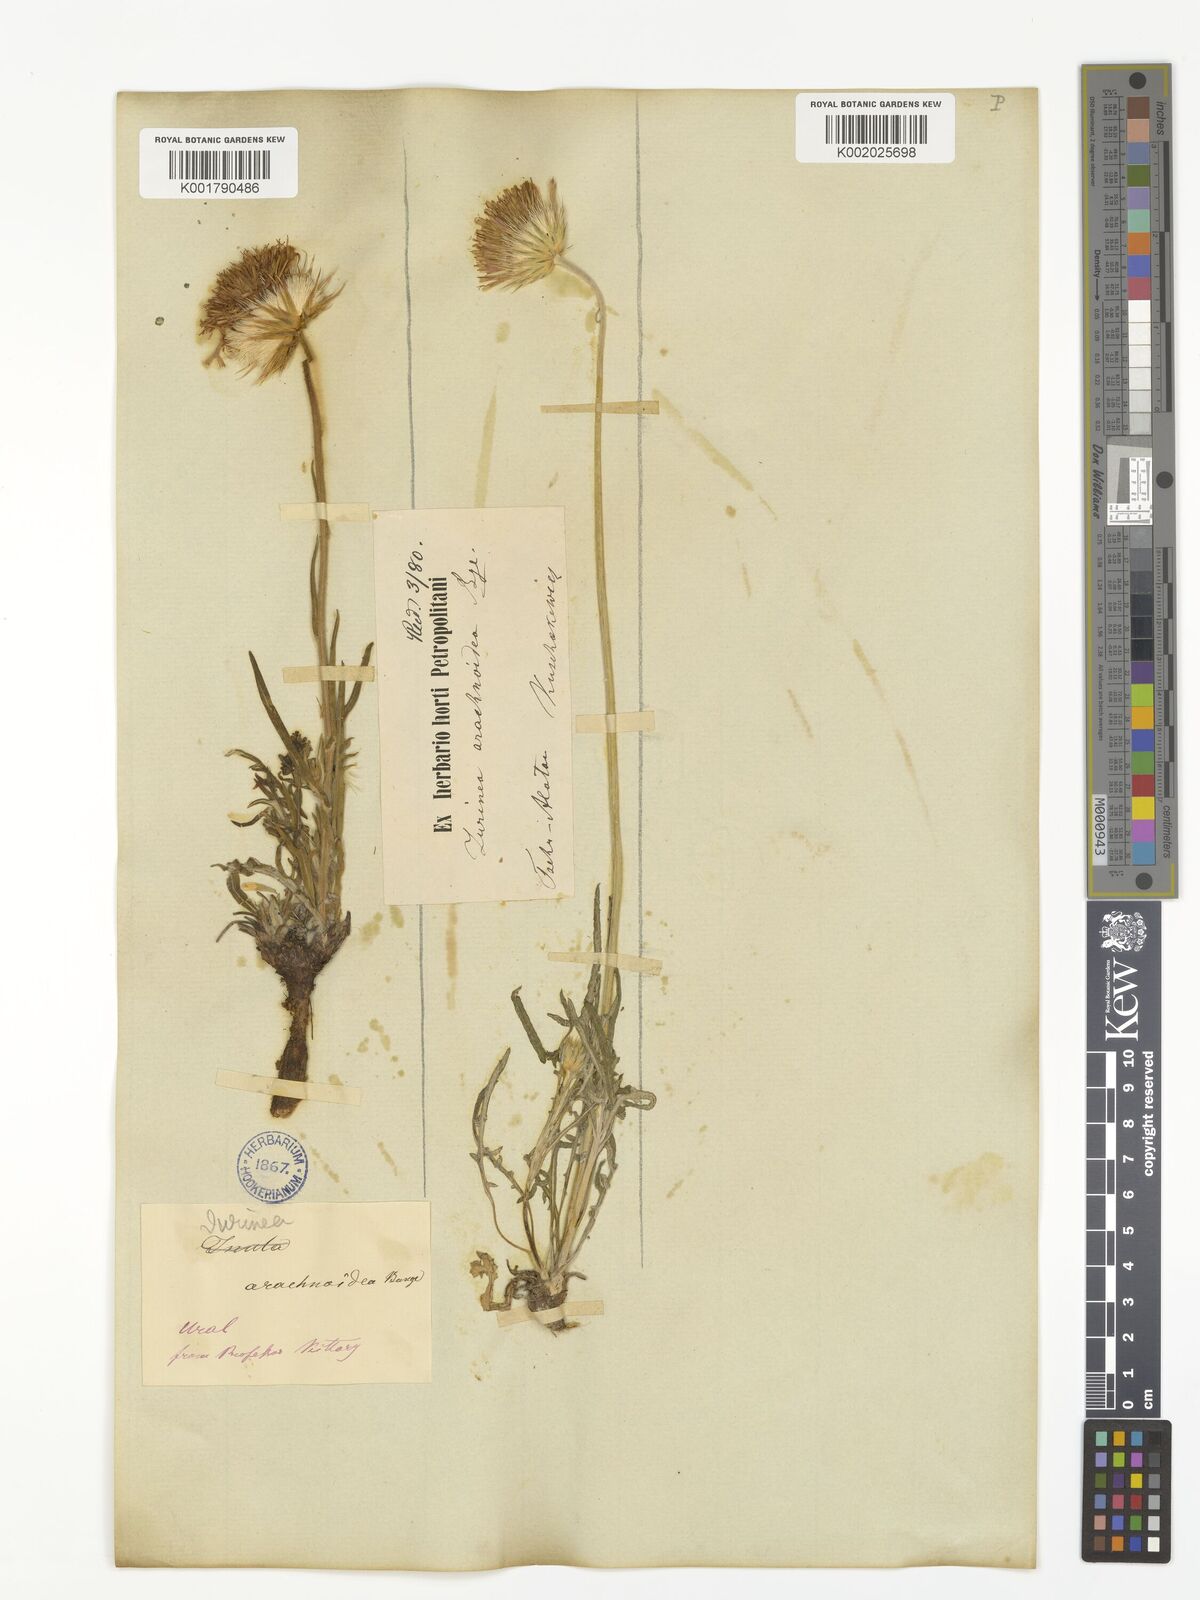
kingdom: Plantae
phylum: Tracheophyta
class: Magnoliopsida
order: Asterales
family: Asteraceae
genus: Jurinea
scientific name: Jurinea arachnoidea
